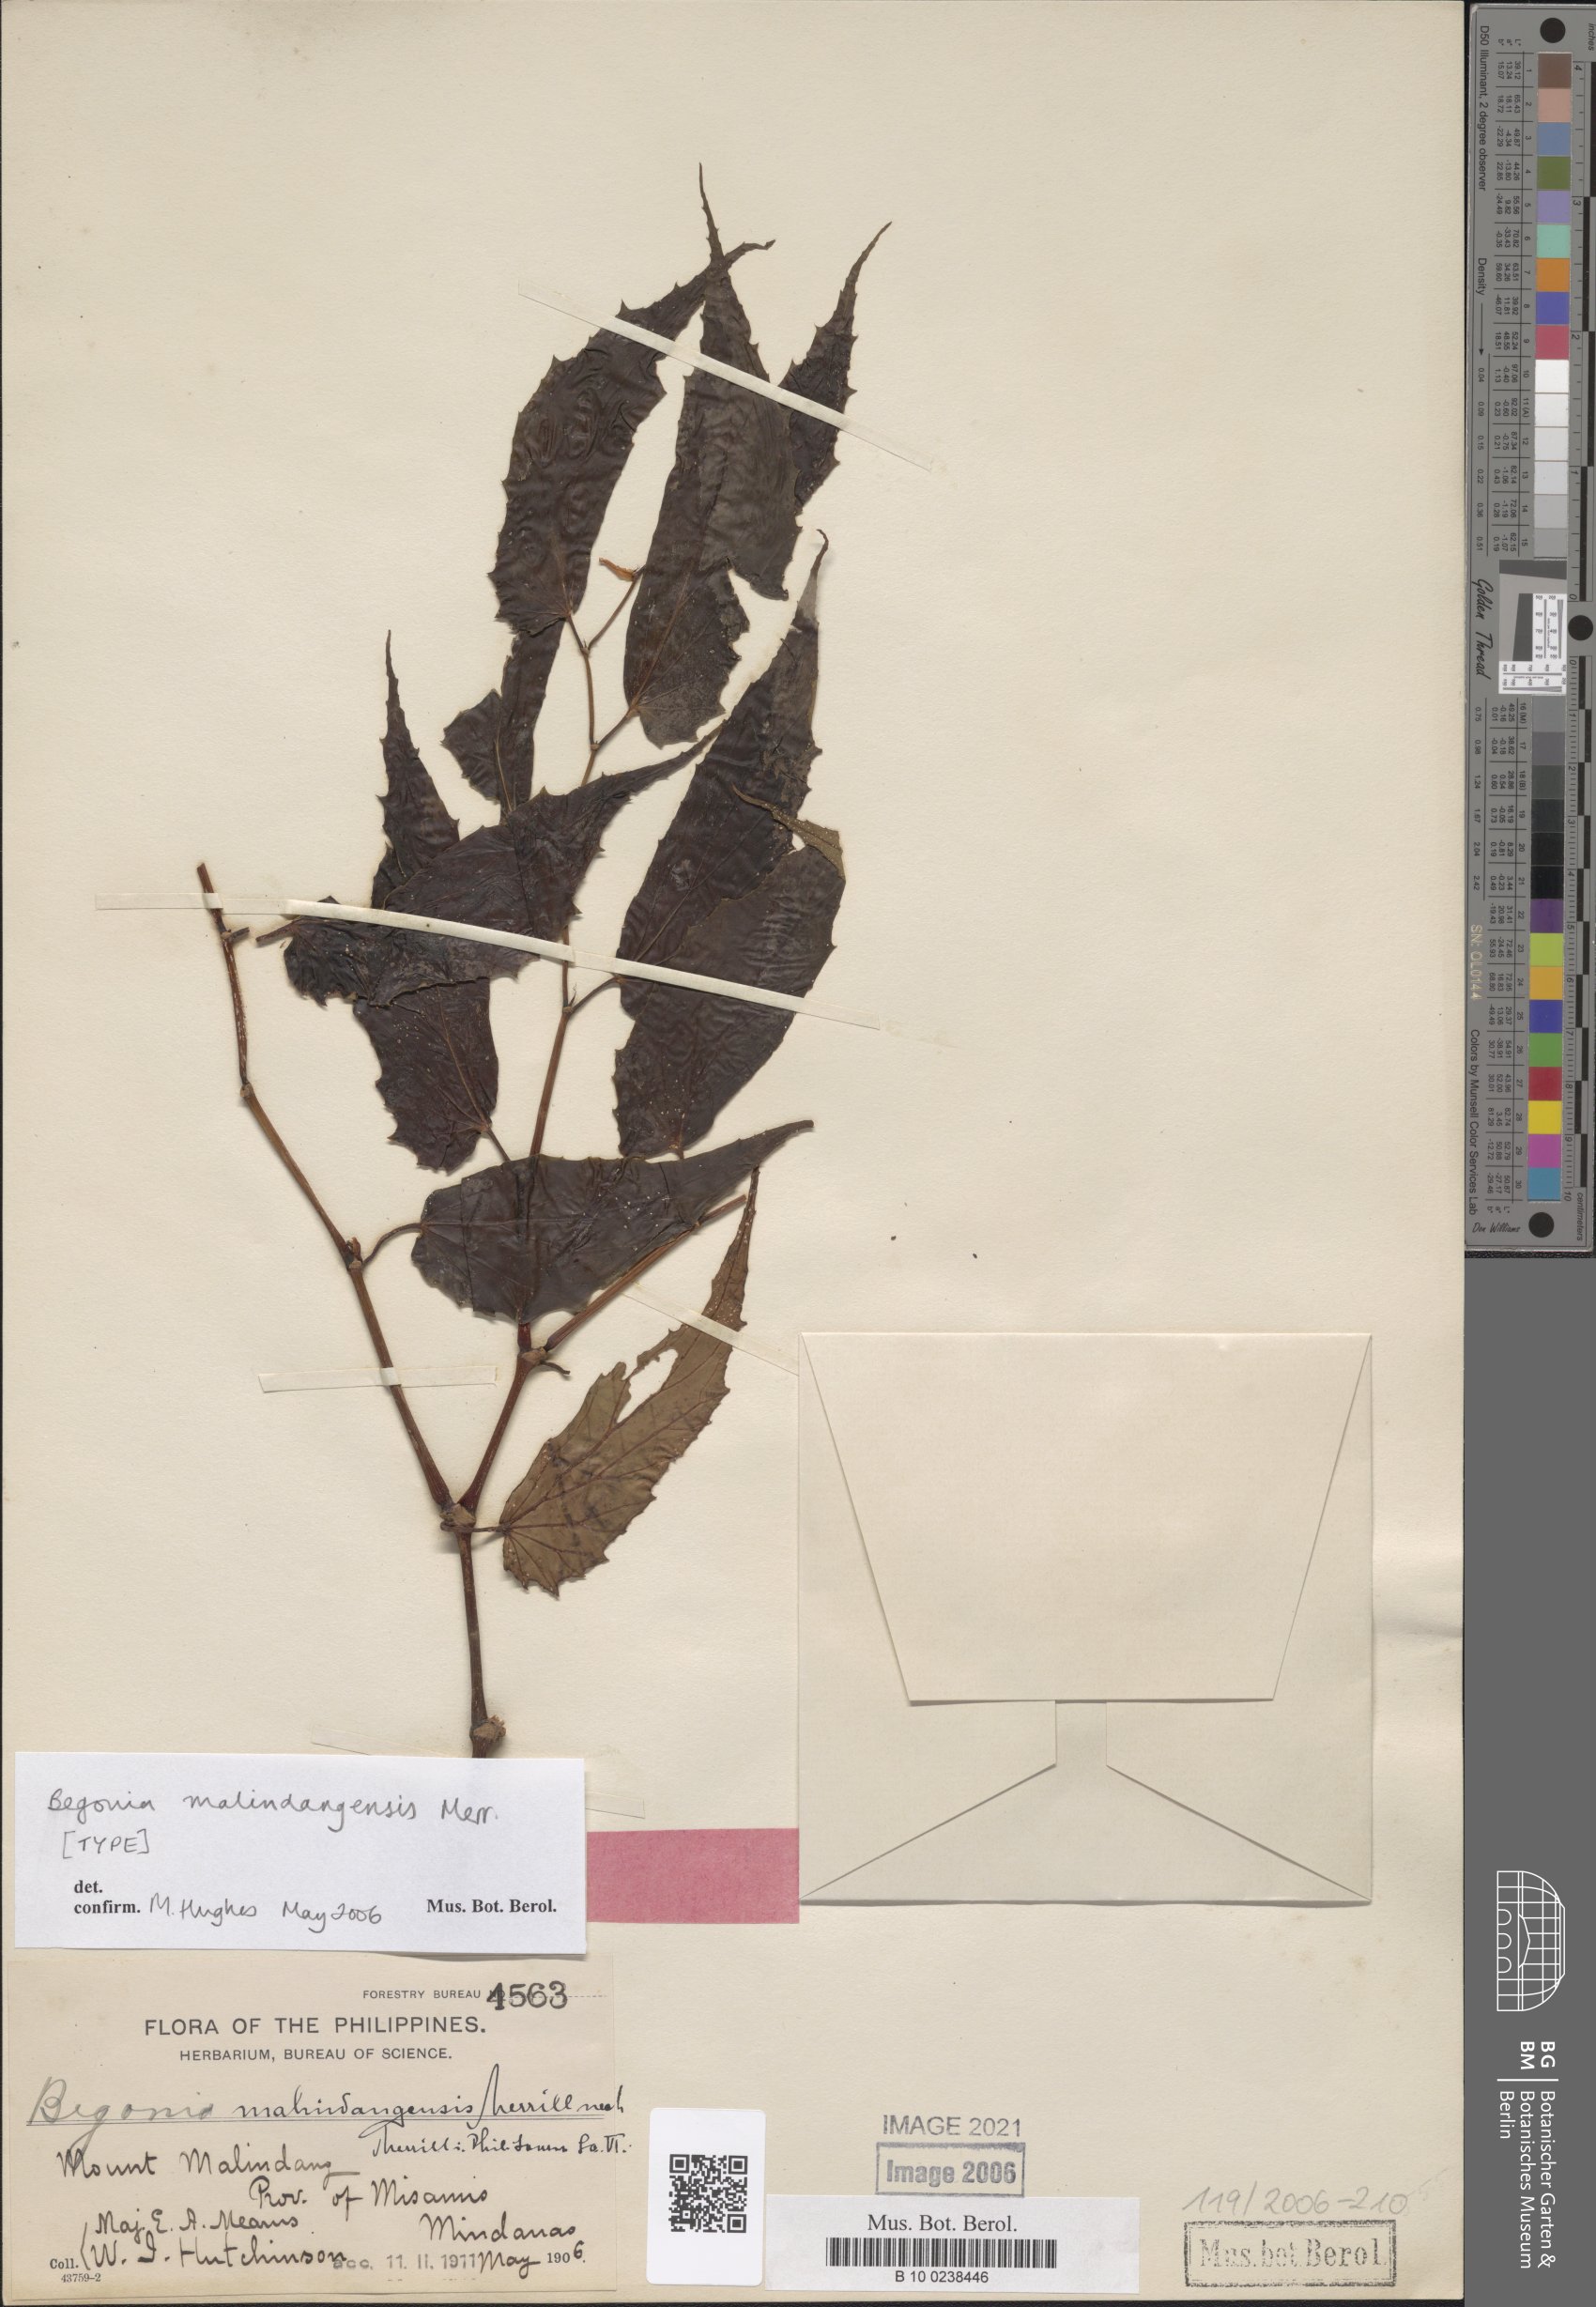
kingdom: Plantae
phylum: Tracheophyta
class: Magnoliopsida
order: Cucurbitales
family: Begoniaceae
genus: Begonia
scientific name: Begonia malindangensis
